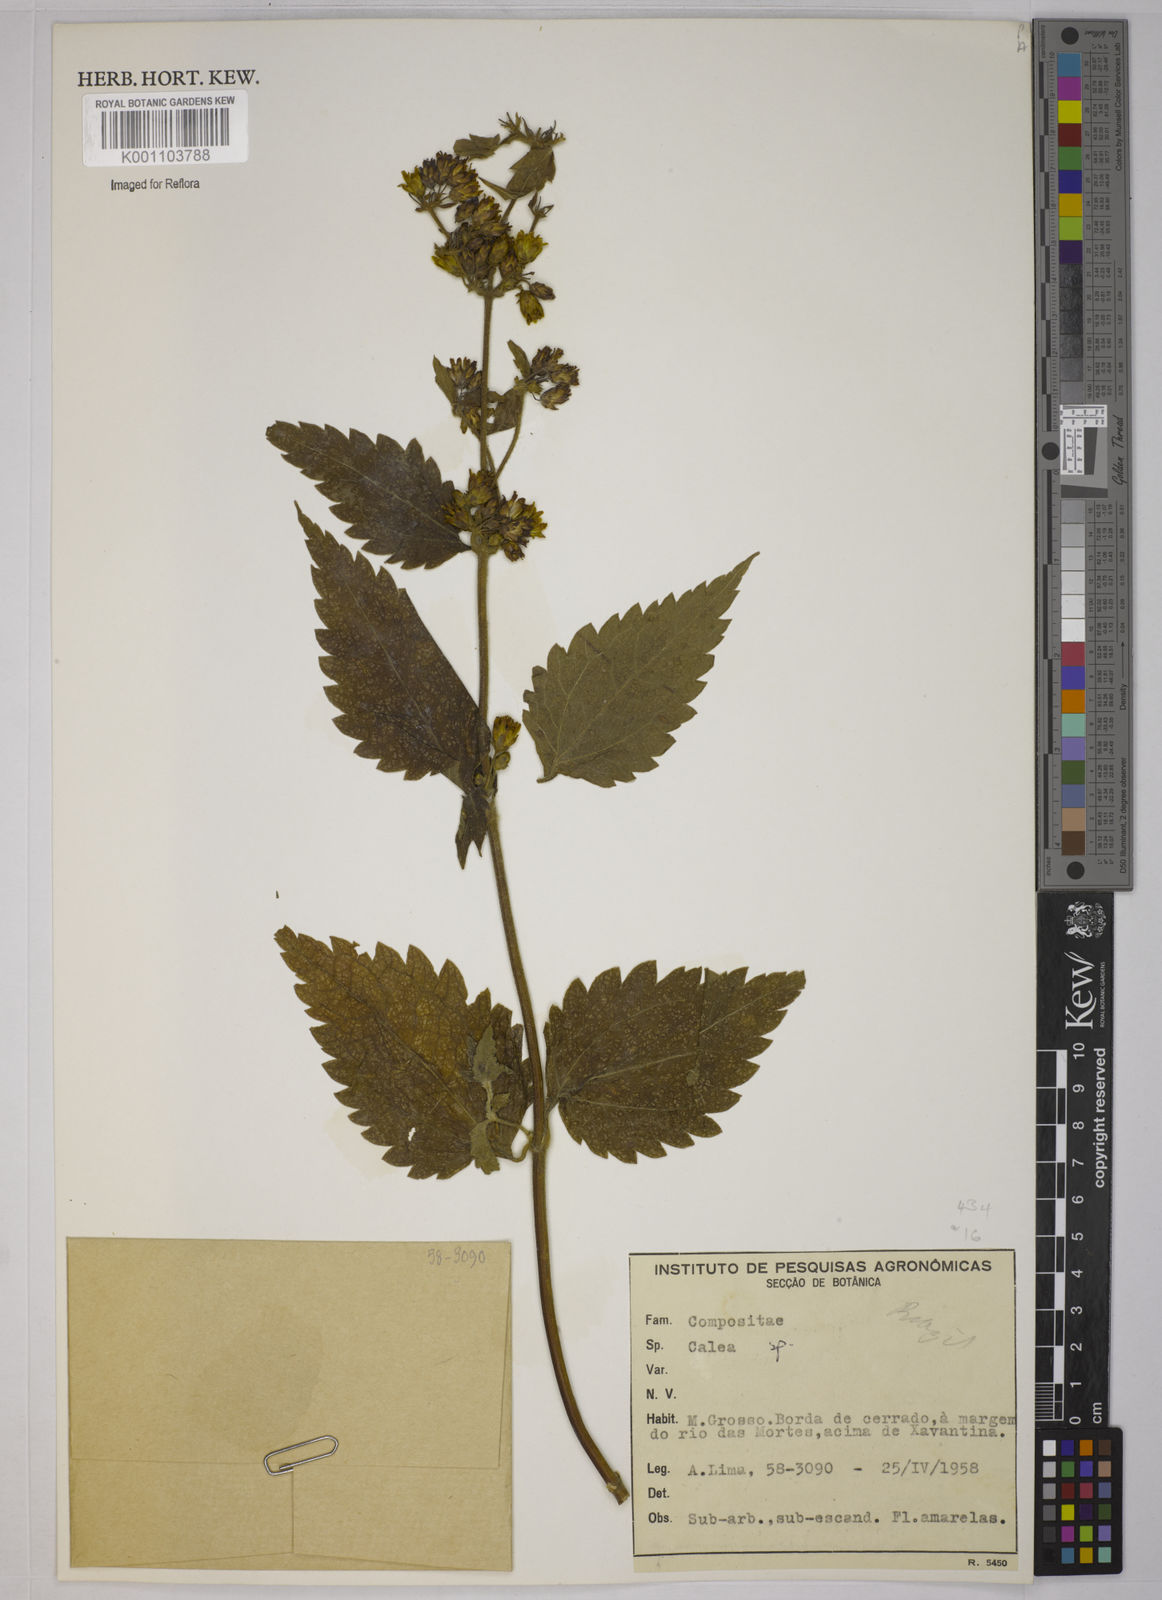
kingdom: Plantae
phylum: Tracheophyta
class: Magnoliopsida
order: Asterales
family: Asteraceae
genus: Calea
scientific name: Calea
